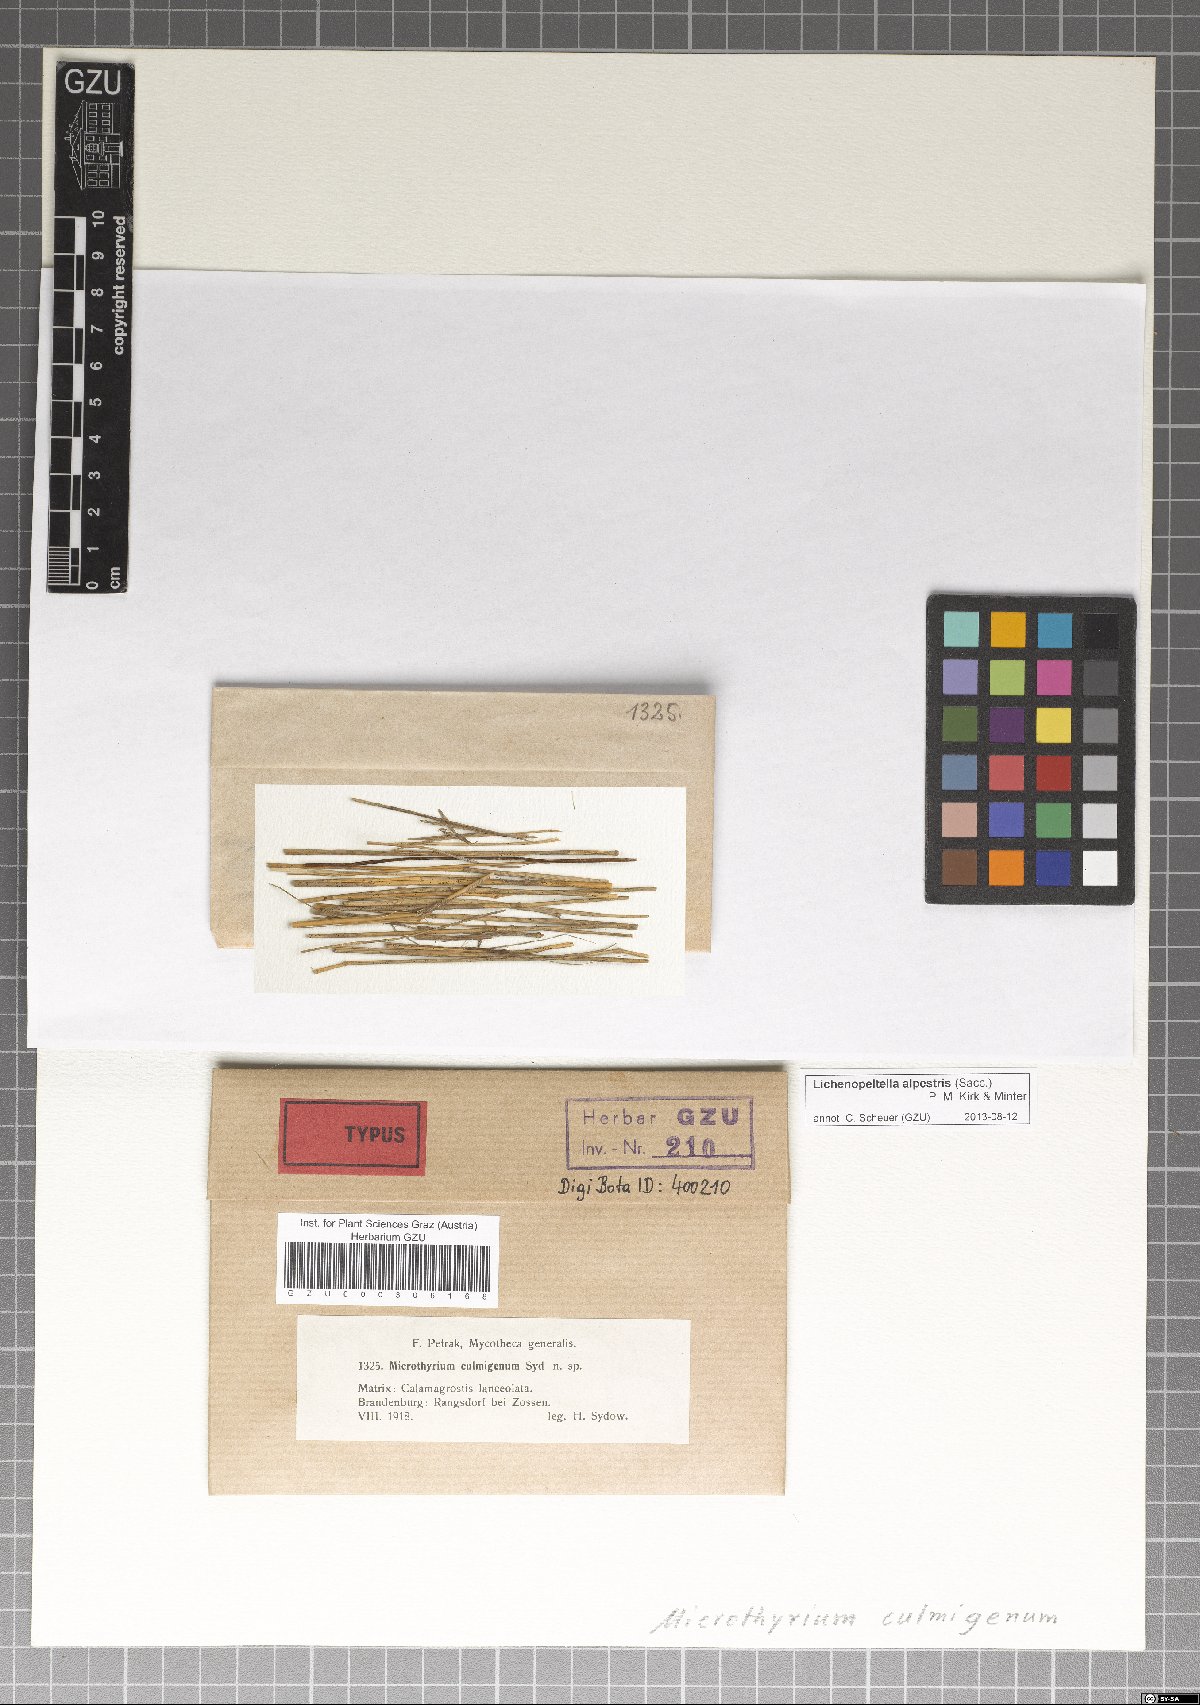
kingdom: Fungi
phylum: Ascomycota
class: Dothideomycetes
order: Microthyriales
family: Microthyriaceae
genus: Lichenopeltella
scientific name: Lichenopeltella alpestris
